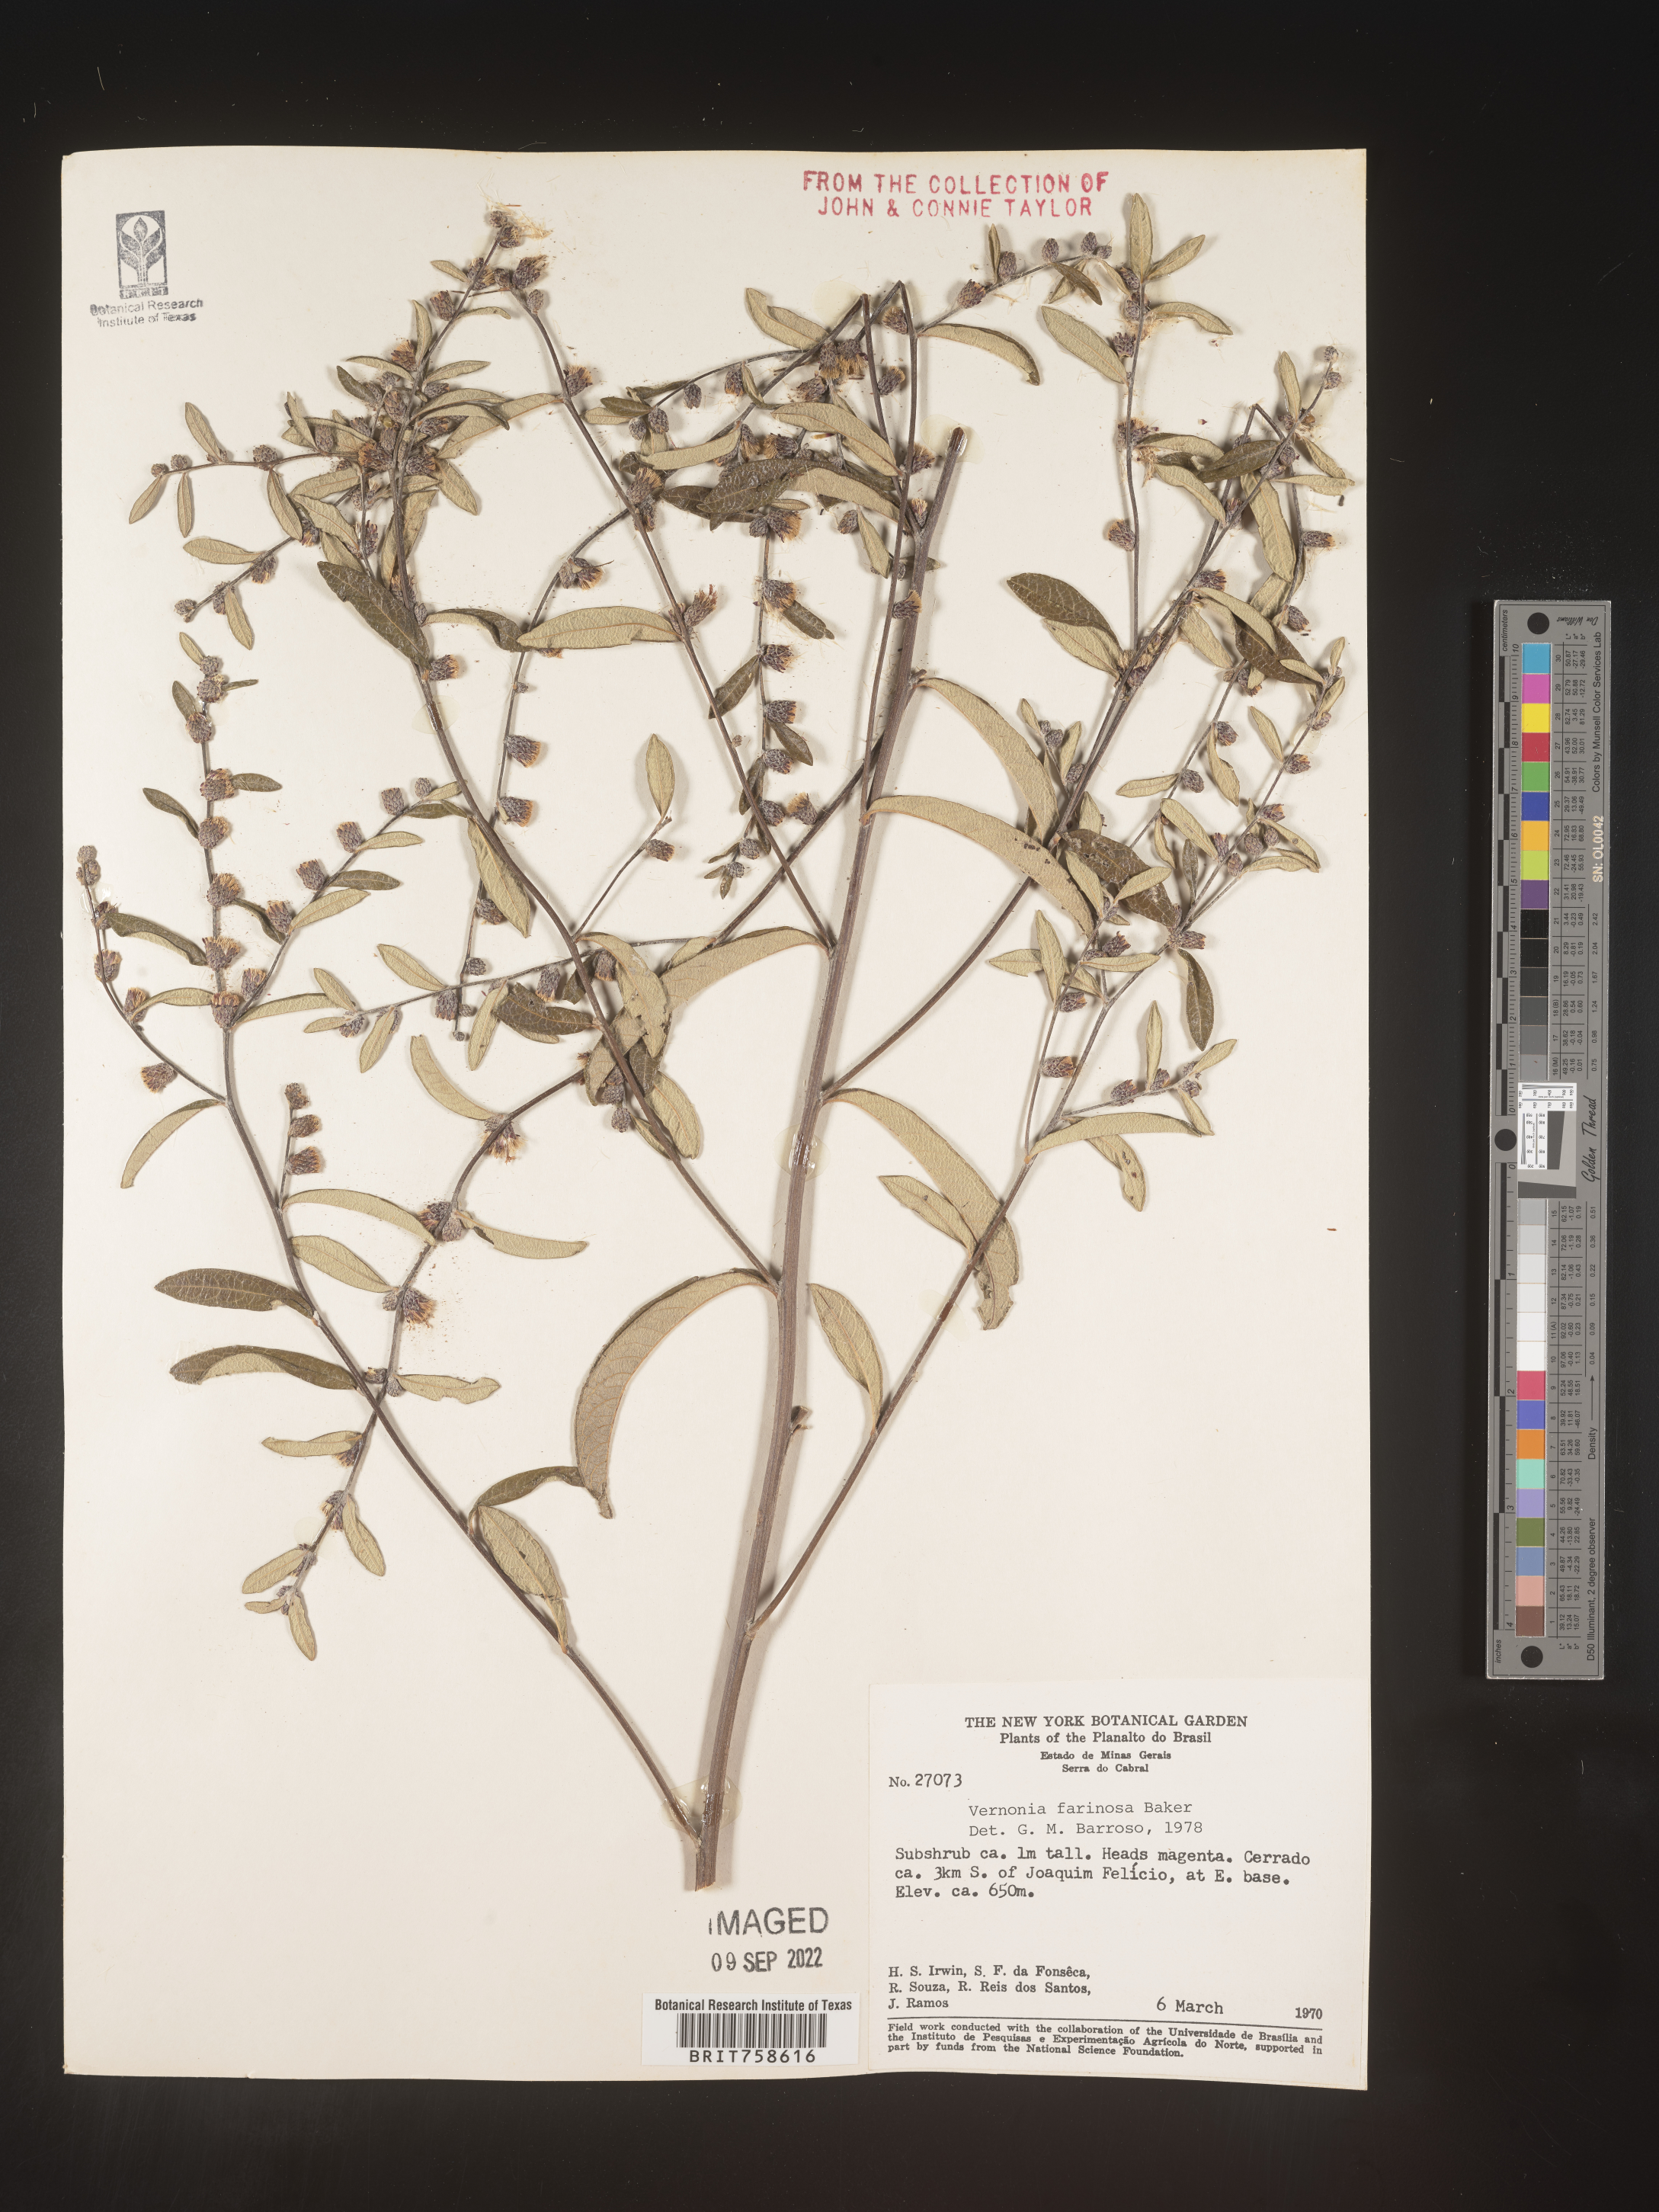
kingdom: Plantae
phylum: Tracheophyta
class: Magnoliopsida
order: Asterales
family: Asteraceae
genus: Vernonia
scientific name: Vernonia
